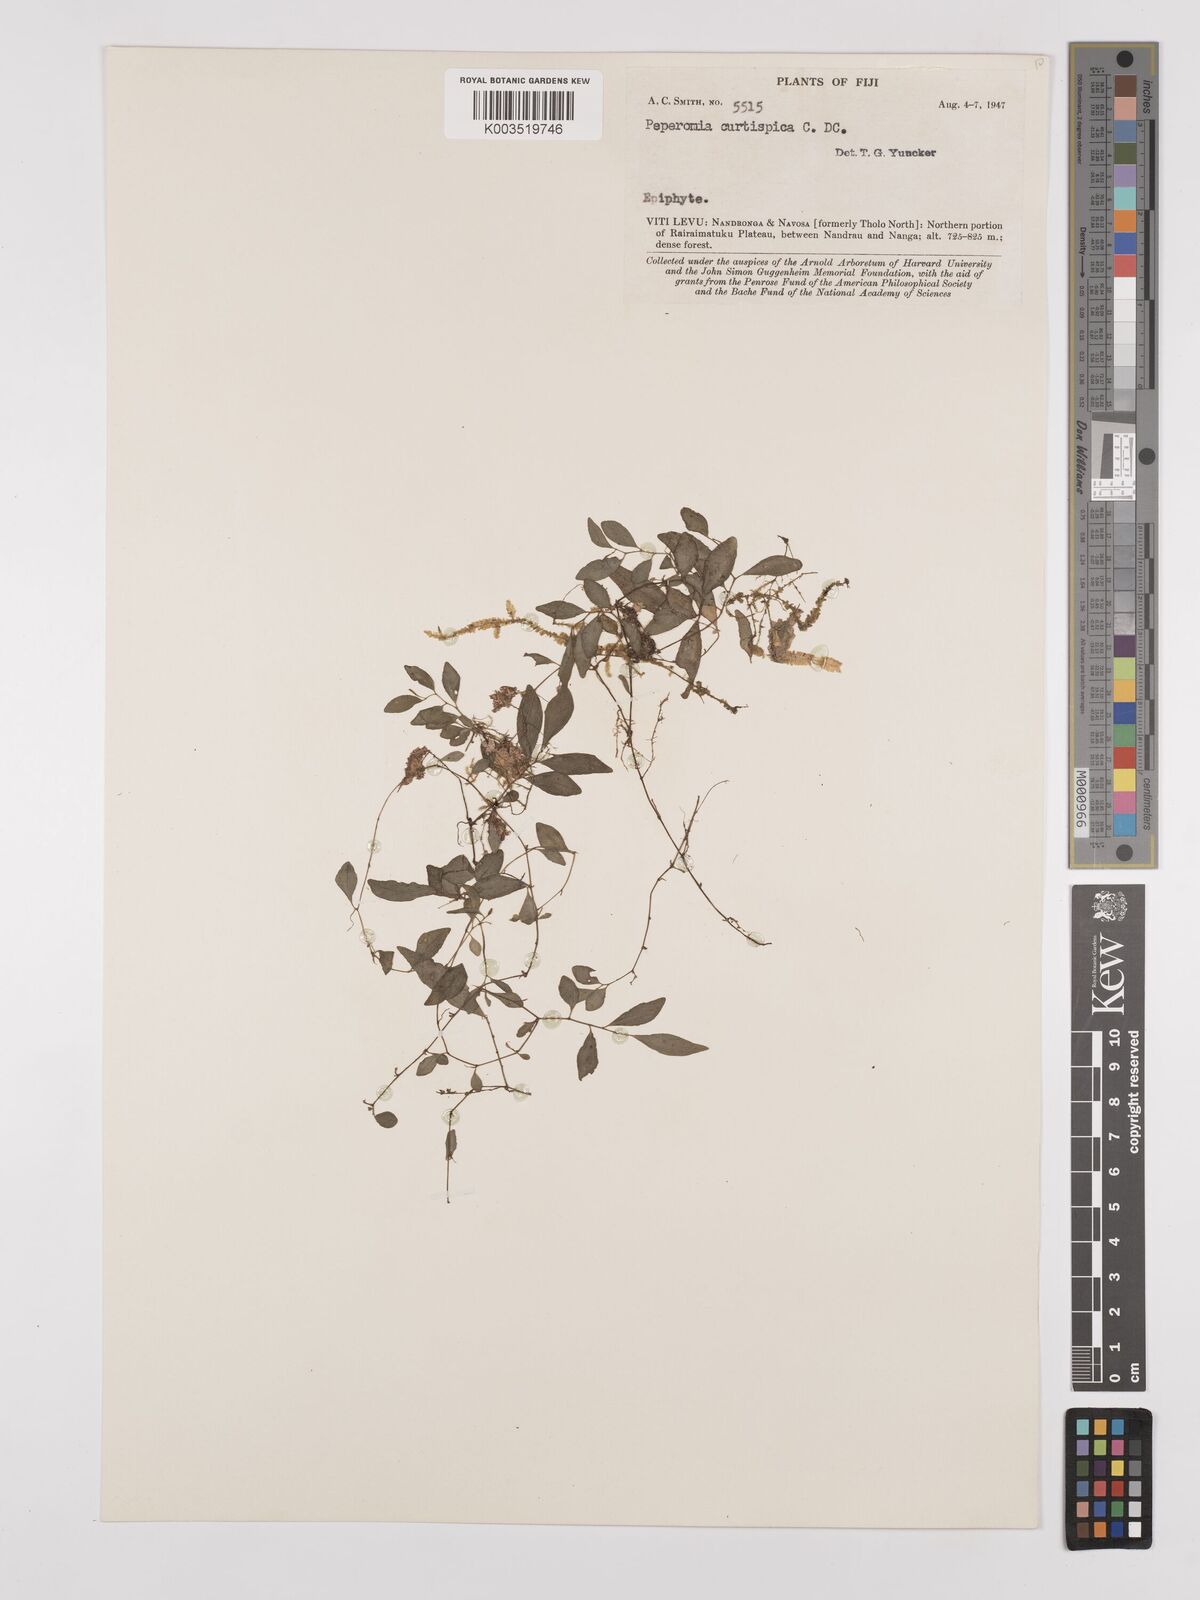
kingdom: Plantae
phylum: Tracheophyta
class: Magnoliopsida
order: Piperales
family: Piperaceae
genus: Peperomia
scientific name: Peperomia curtispica
